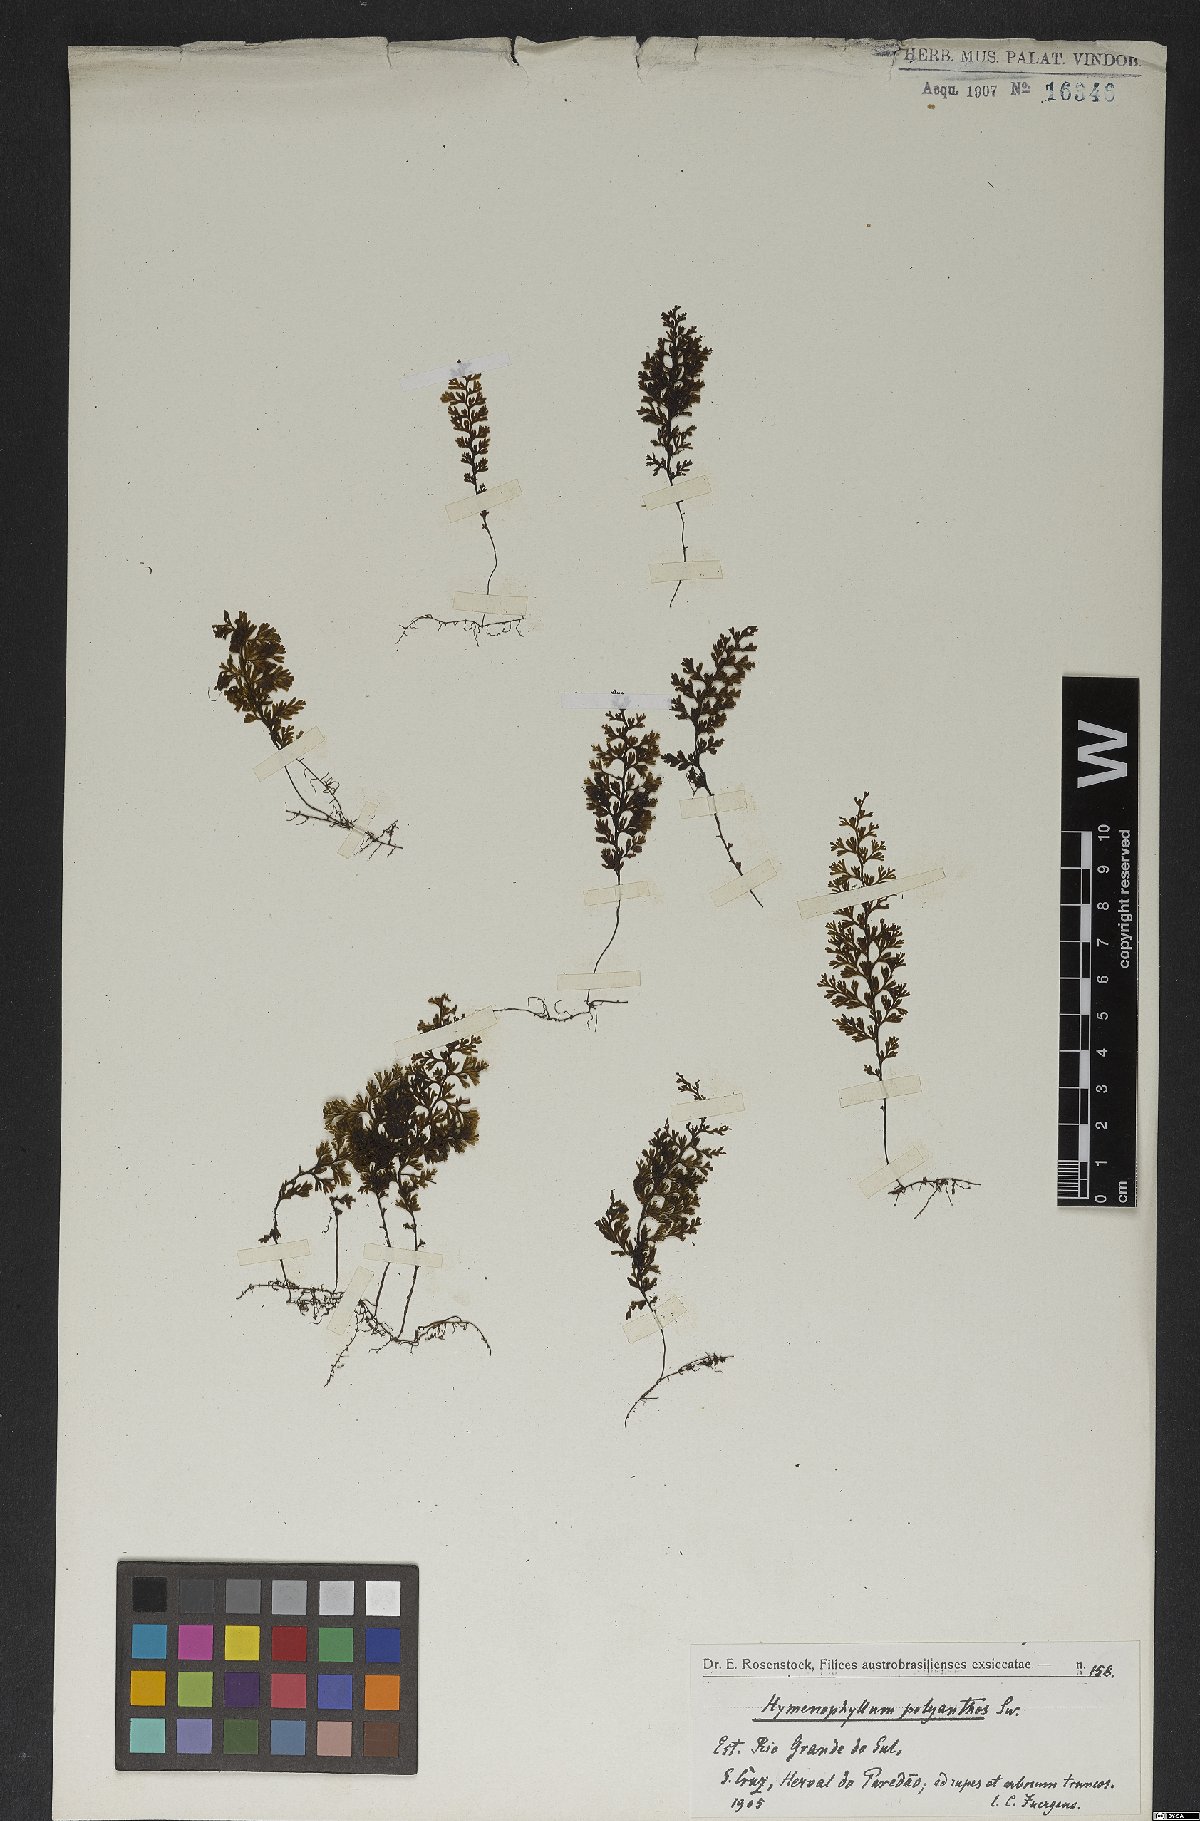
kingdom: Plantae
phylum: Tracheophyta
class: Polypodiopsida
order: Hymenophyllales
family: Hymenophyllaceae
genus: Hymenophyllum
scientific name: Hymenophyllum polyanthos
